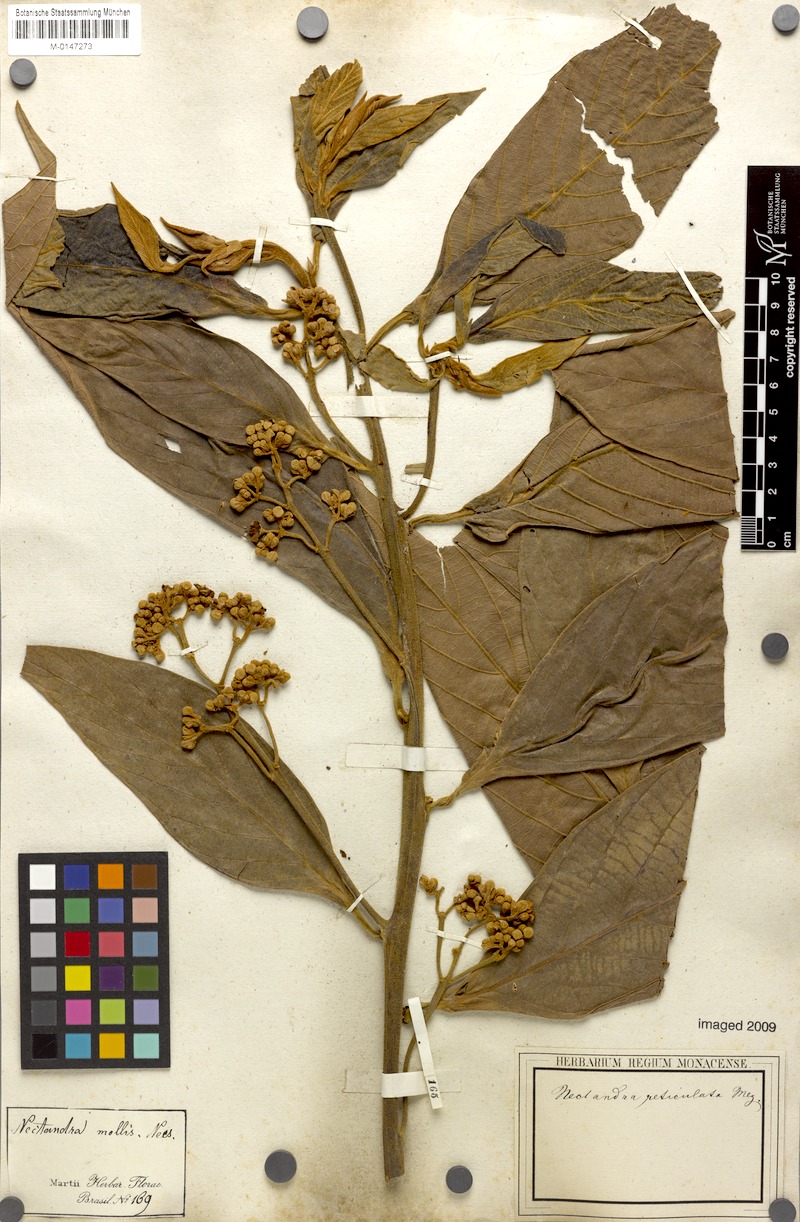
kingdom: Plantae
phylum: Tracheophyta
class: Magnoliopsida
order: Laurales
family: Lauraceae
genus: Nectandra
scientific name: Nectandra villosa
